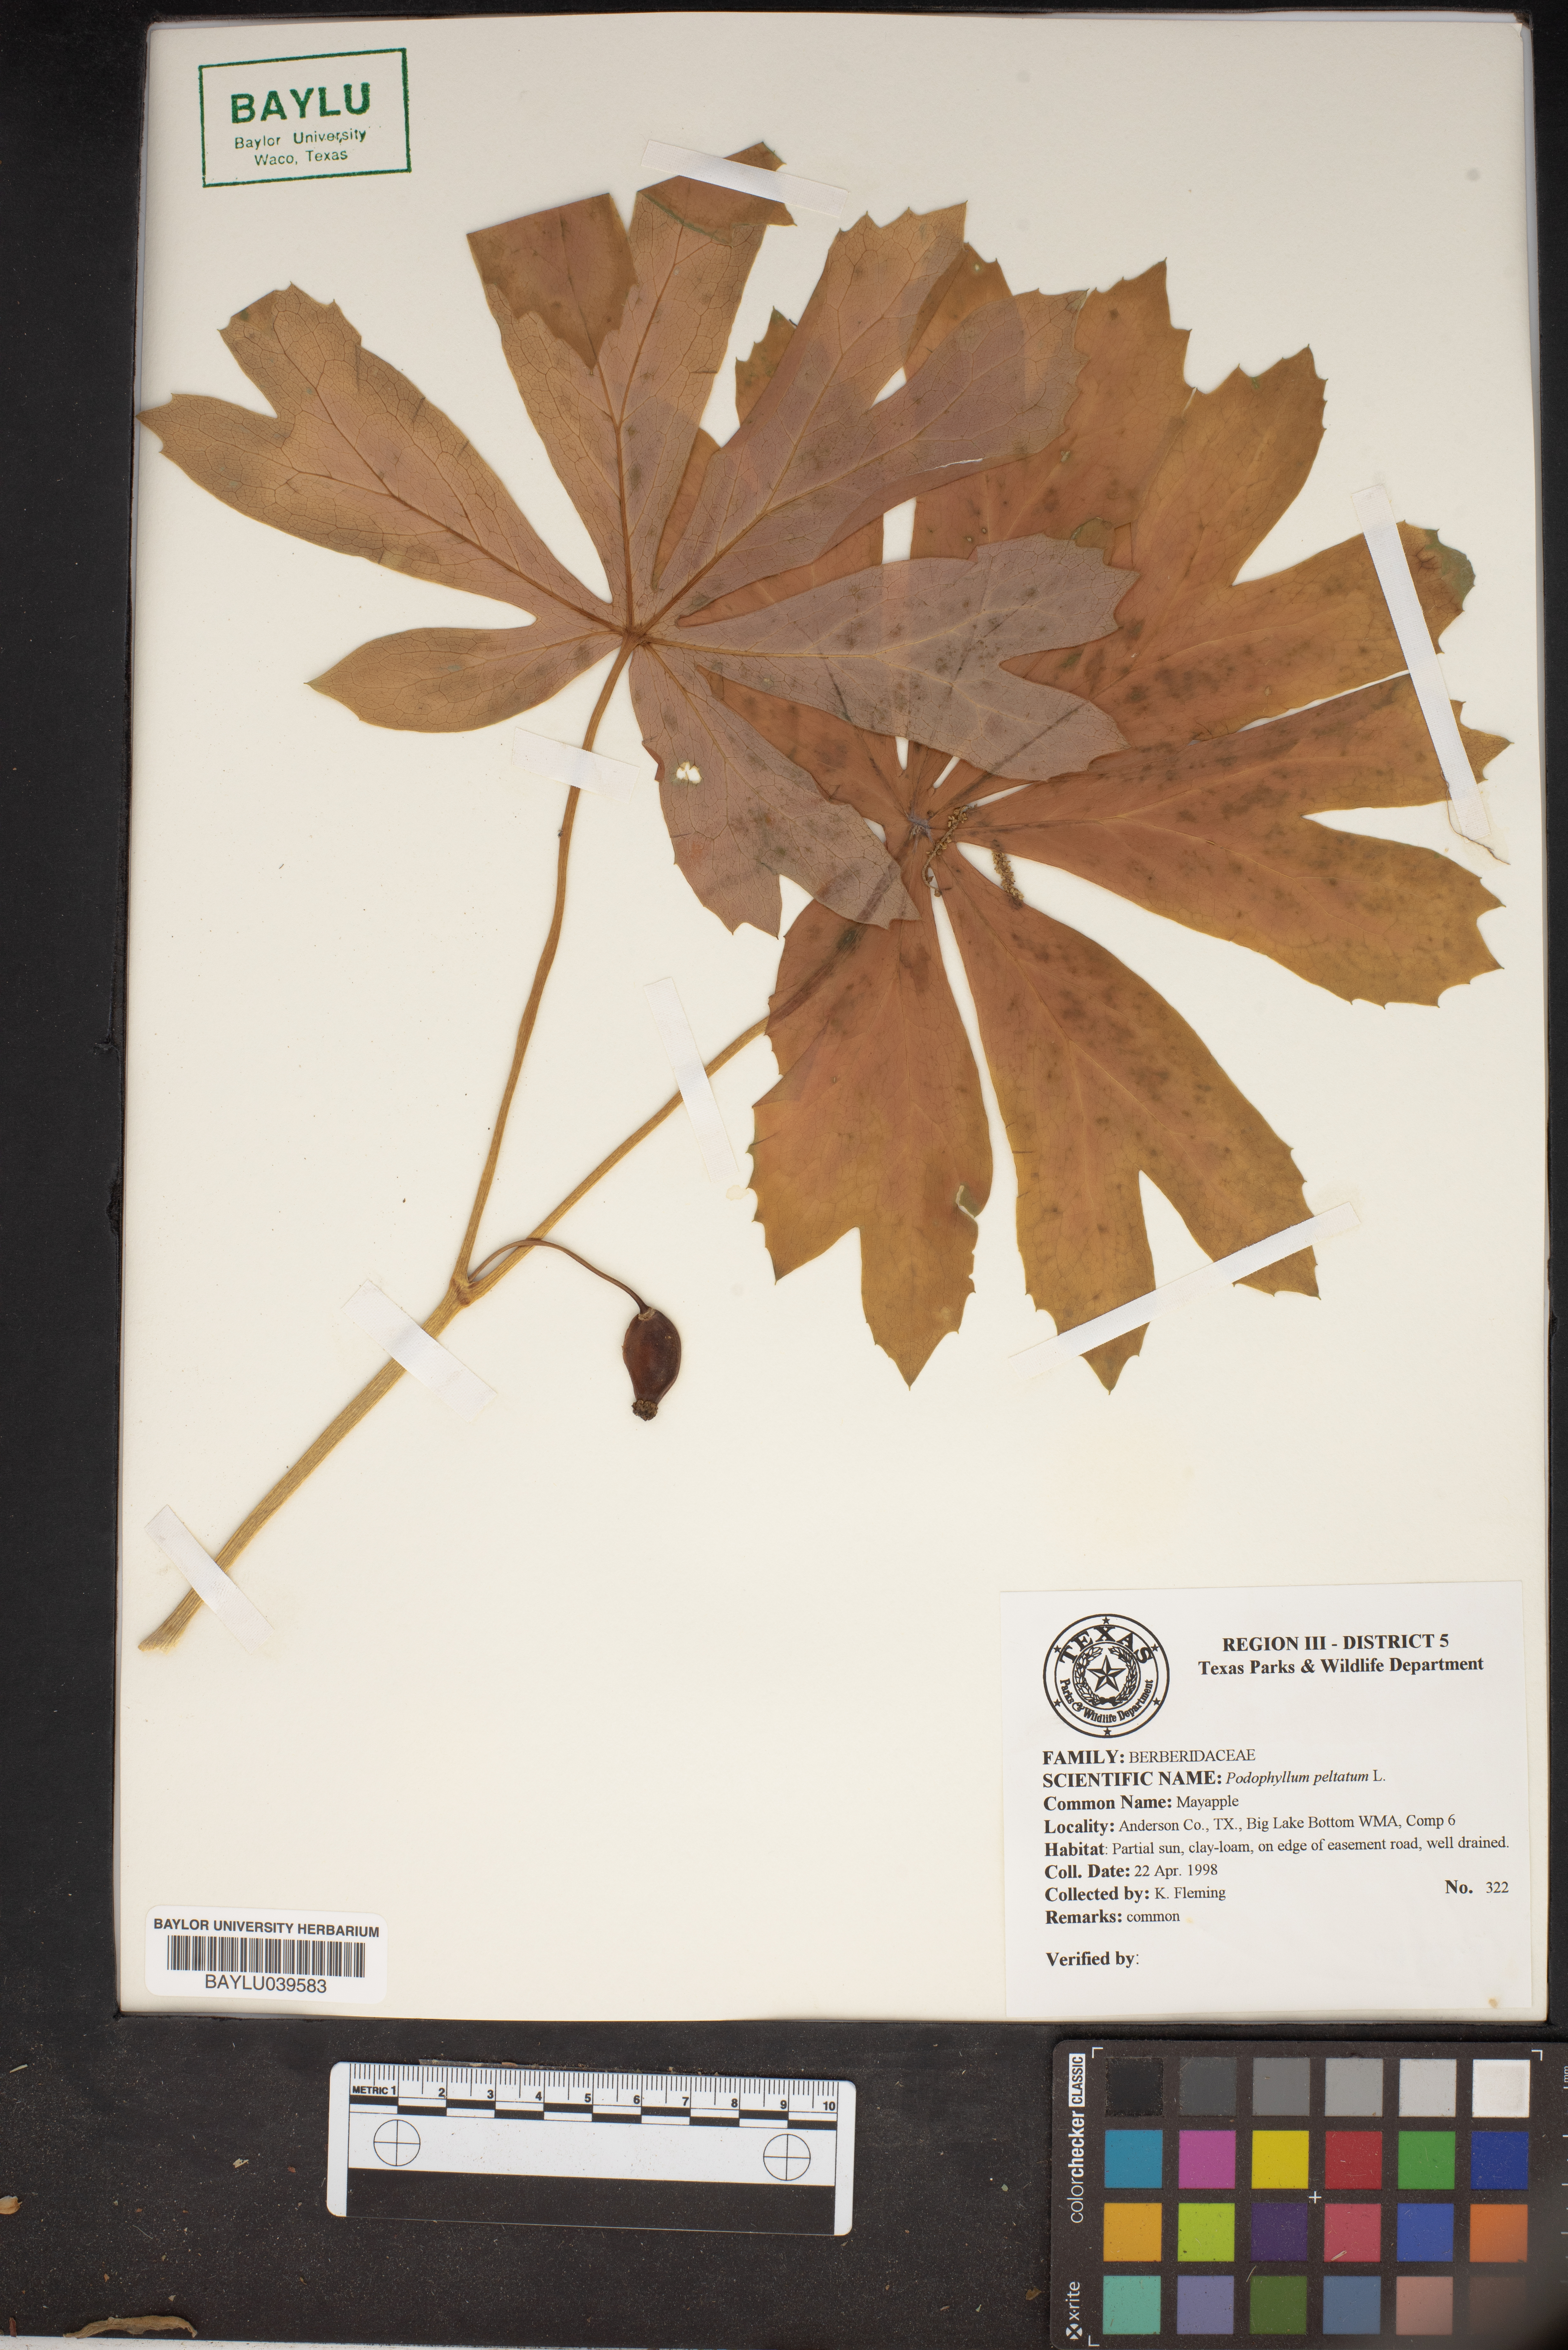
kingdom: Plantae
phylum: Tracheophyta
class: Magnoliopsida
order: Ranunculales
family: Berberidaceae
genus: Podophyllum
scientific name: Podophyllum peltatum
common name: Wild mandrake
